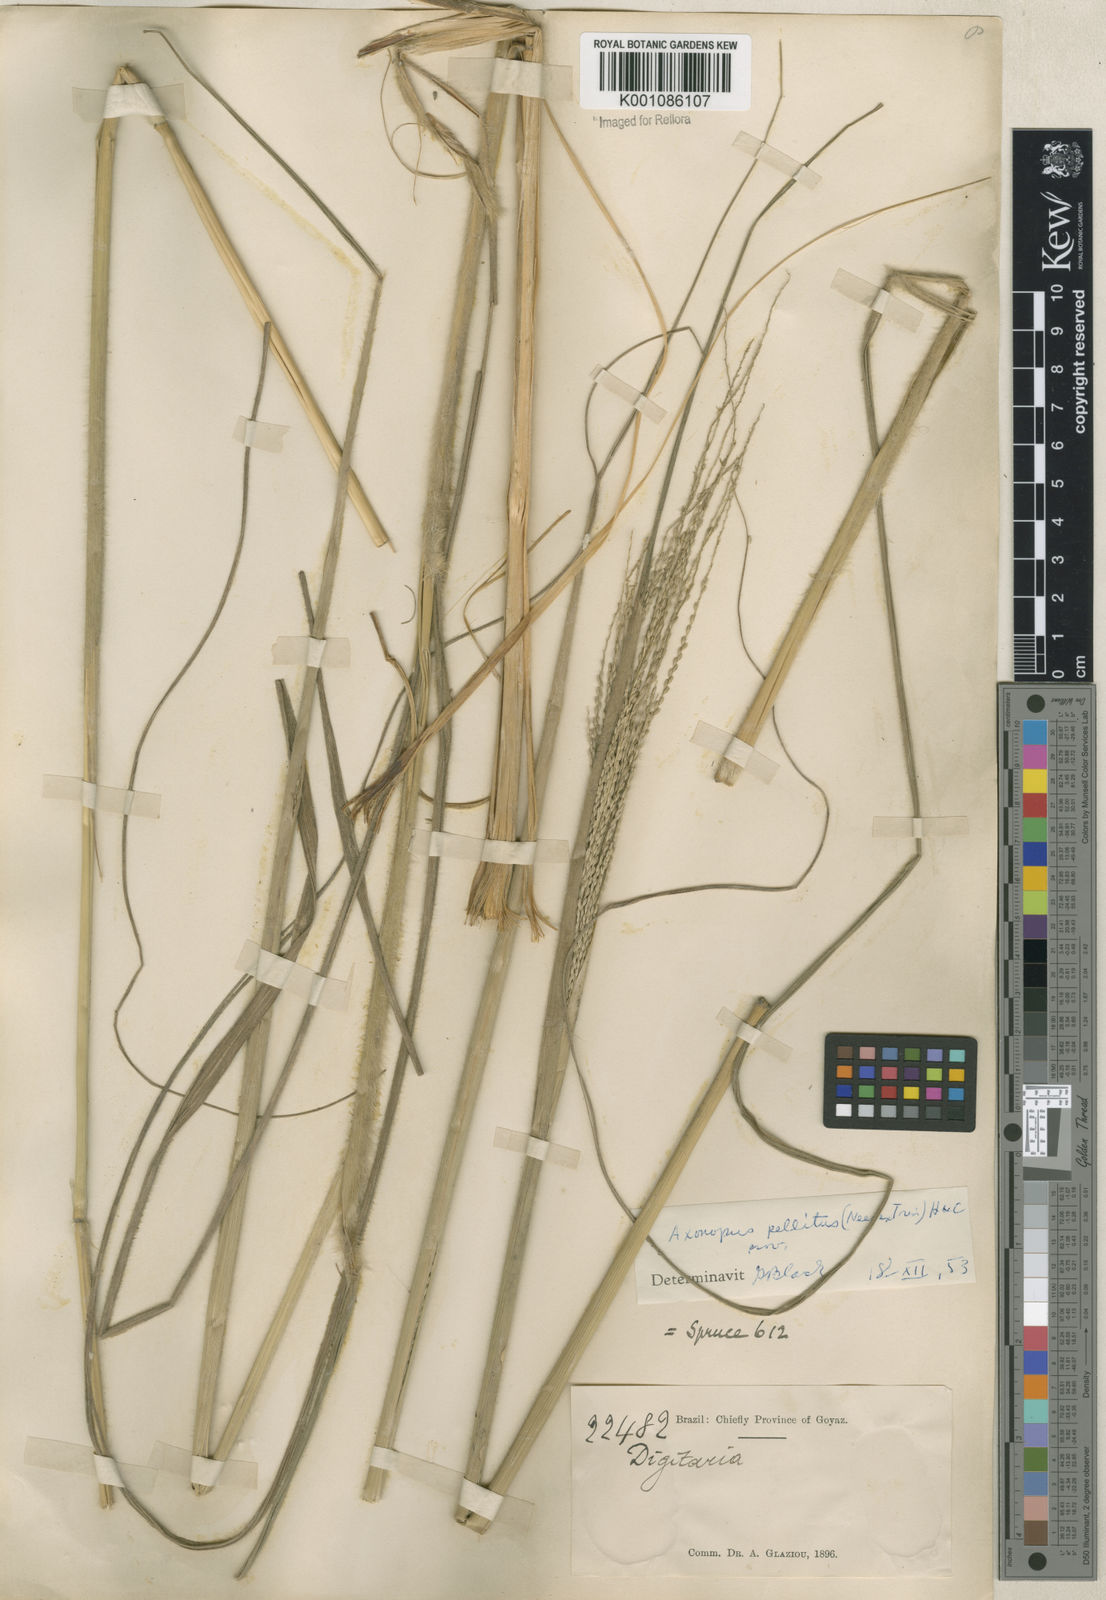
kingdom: Plantae
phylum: Tracheophyta
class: Liliopsida
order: Poales
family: Poaceae
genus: Axonopus
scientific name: Axonopus siccus
